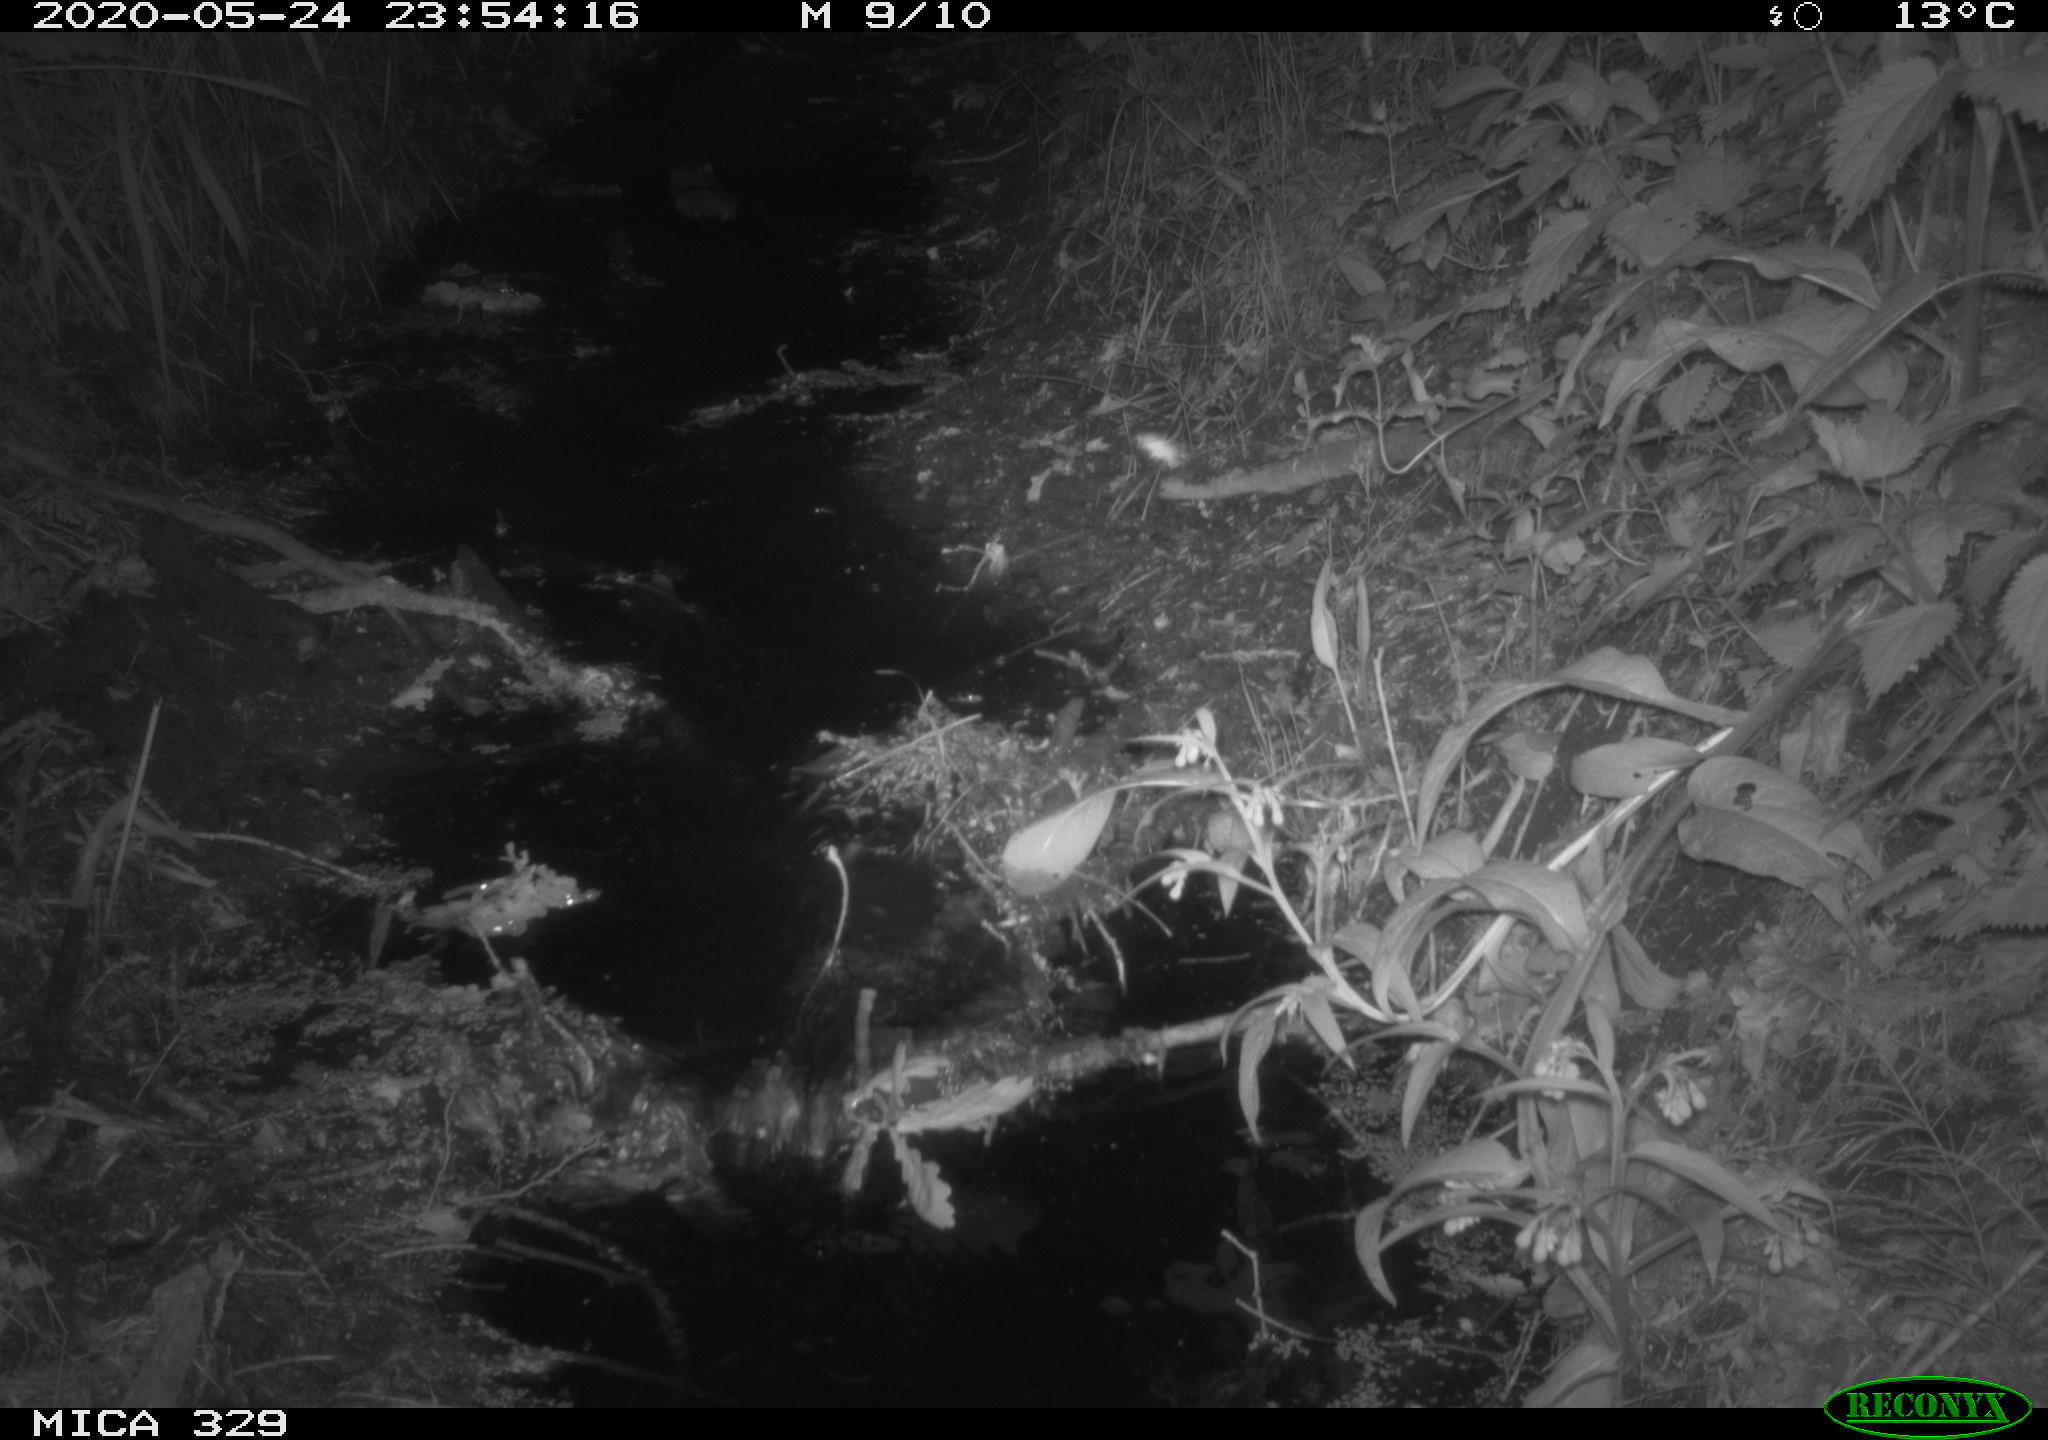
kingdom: Animalia
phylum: Chordata
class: Mammalia
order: Rodentia
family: Castoridae
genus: Castor
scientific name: Castor fiber
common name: Eurasian beaver
